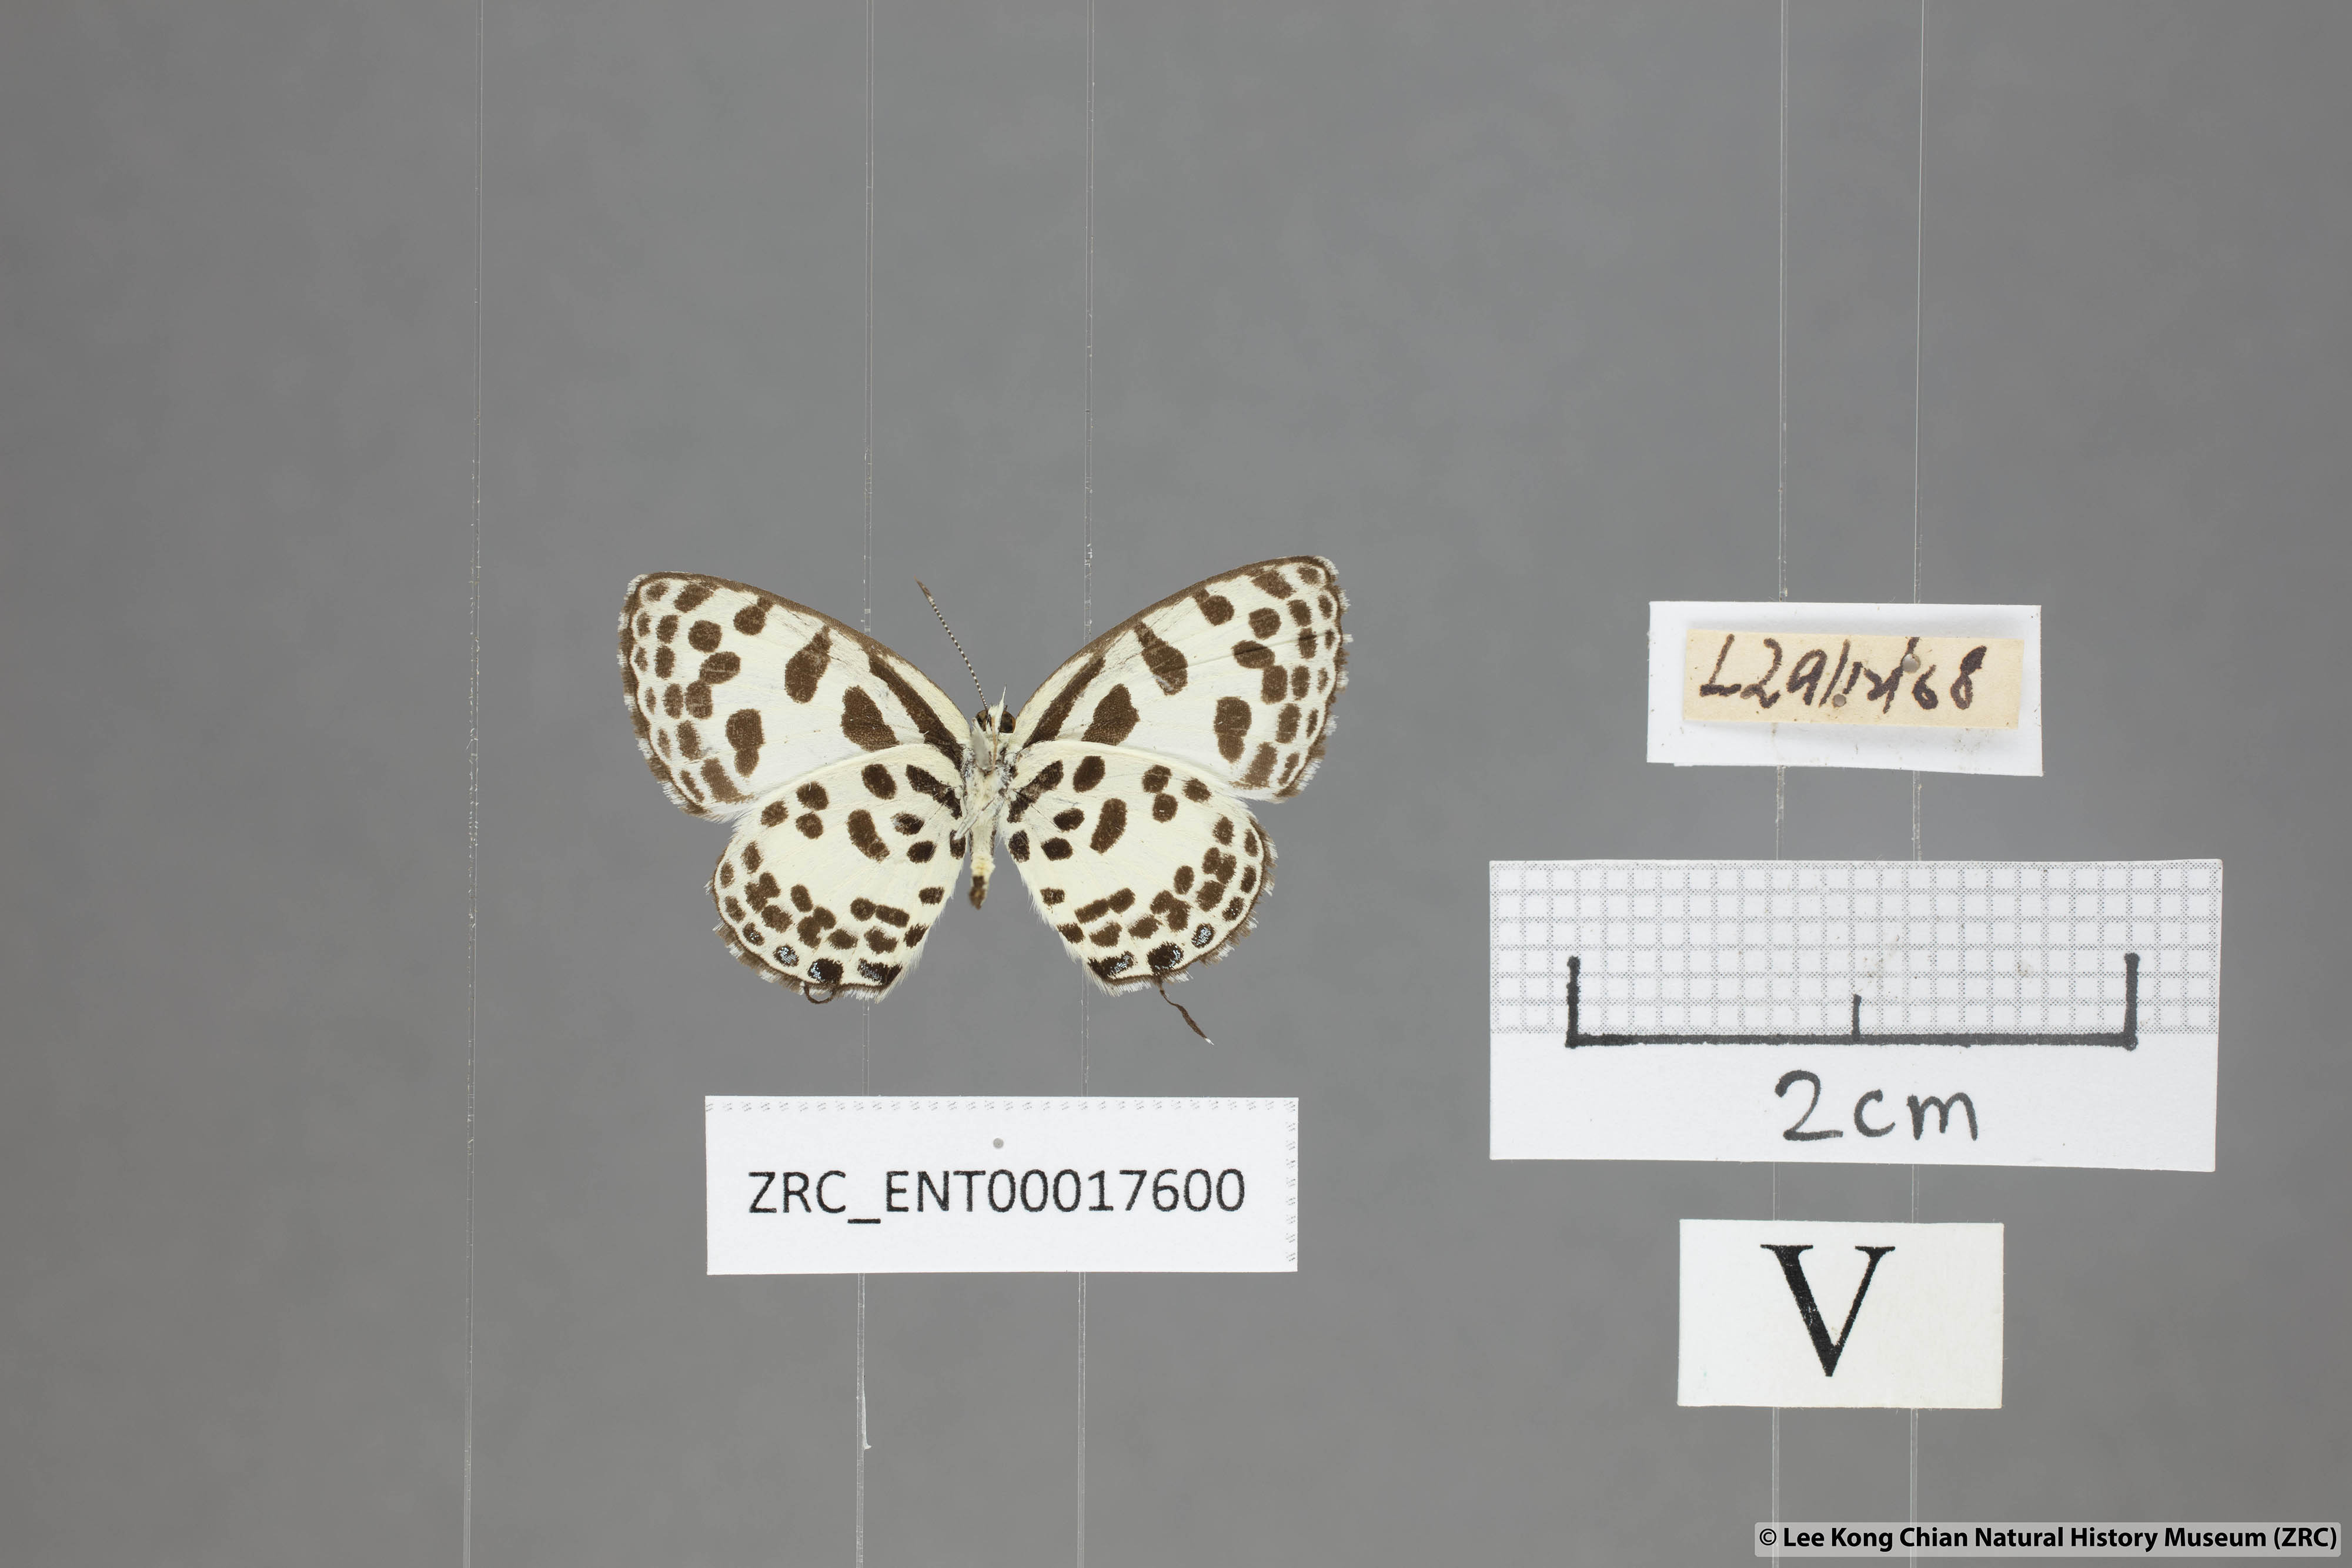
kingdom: Animalia
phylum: Arthropoda
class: Insecta
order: Lepidoptera
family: Lycaenidae
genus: Castalius
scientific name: Castalius rosimon
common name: Common pierrot
